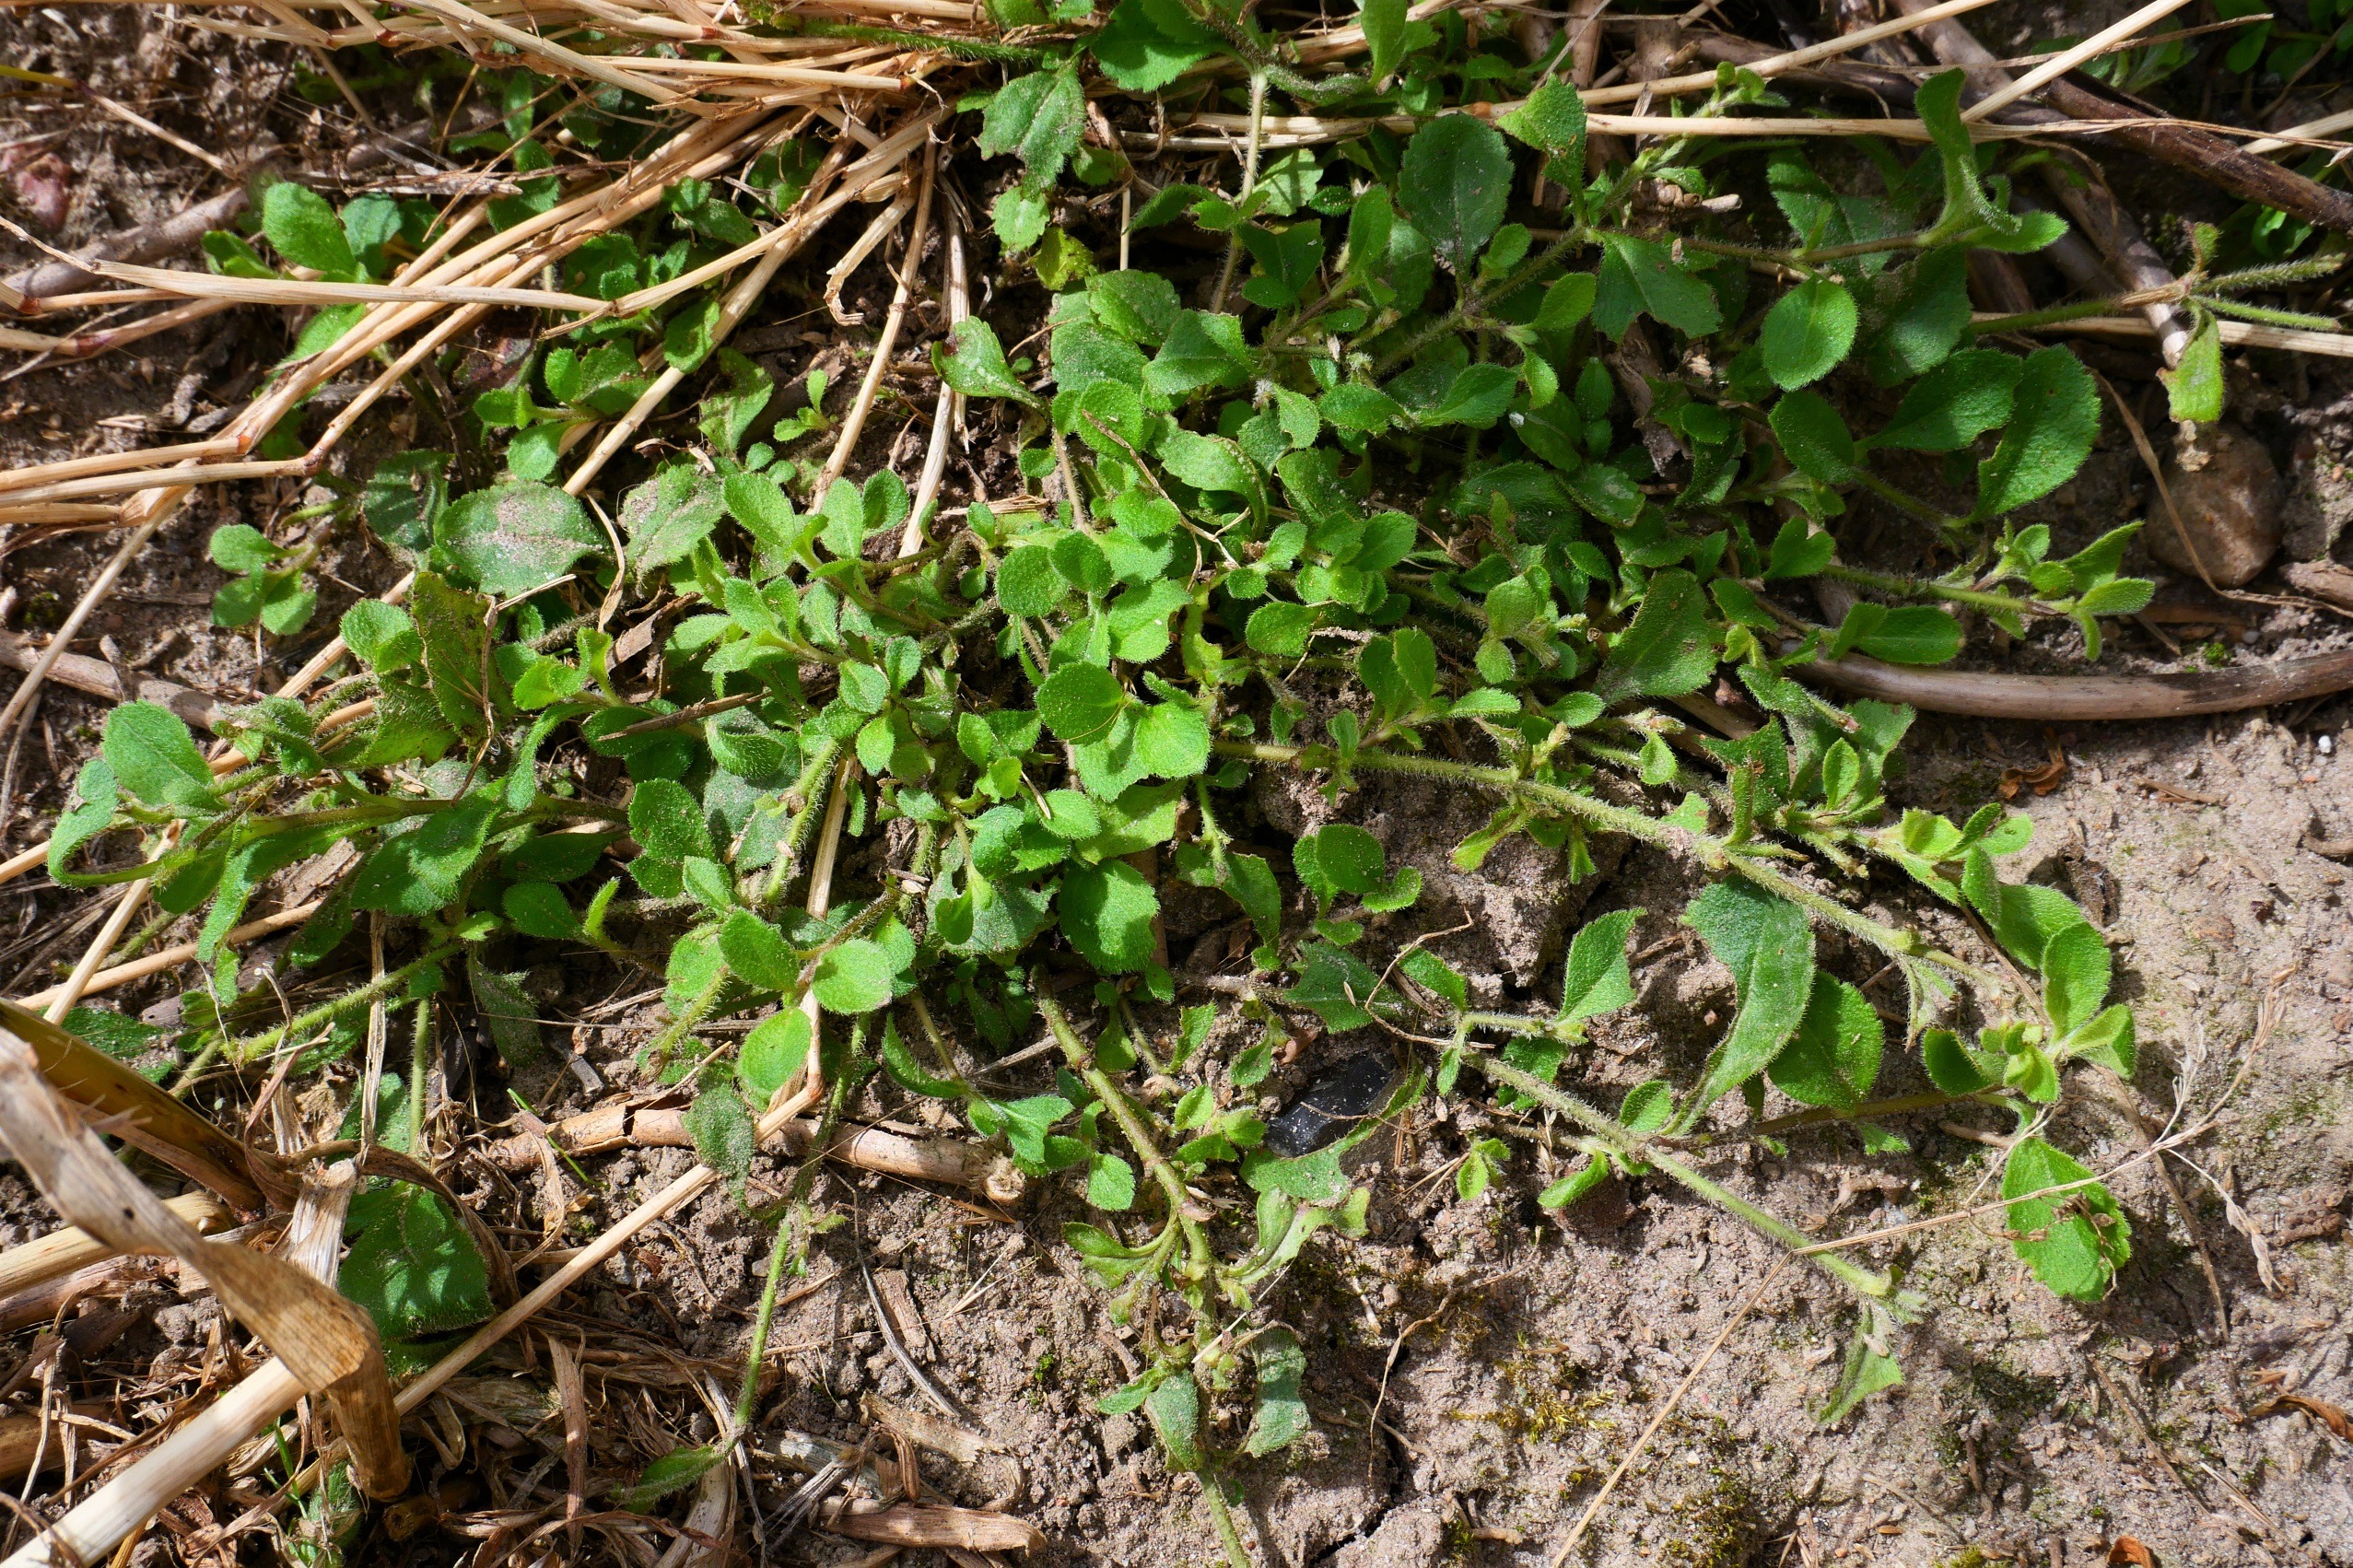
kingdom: Plantae
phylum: Tracheophyta
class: Magnoliopsida
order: Lamiales
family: Plantaginaceae
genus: Veronica
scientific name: Veronica officinalis
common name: Læge-ærenpris
